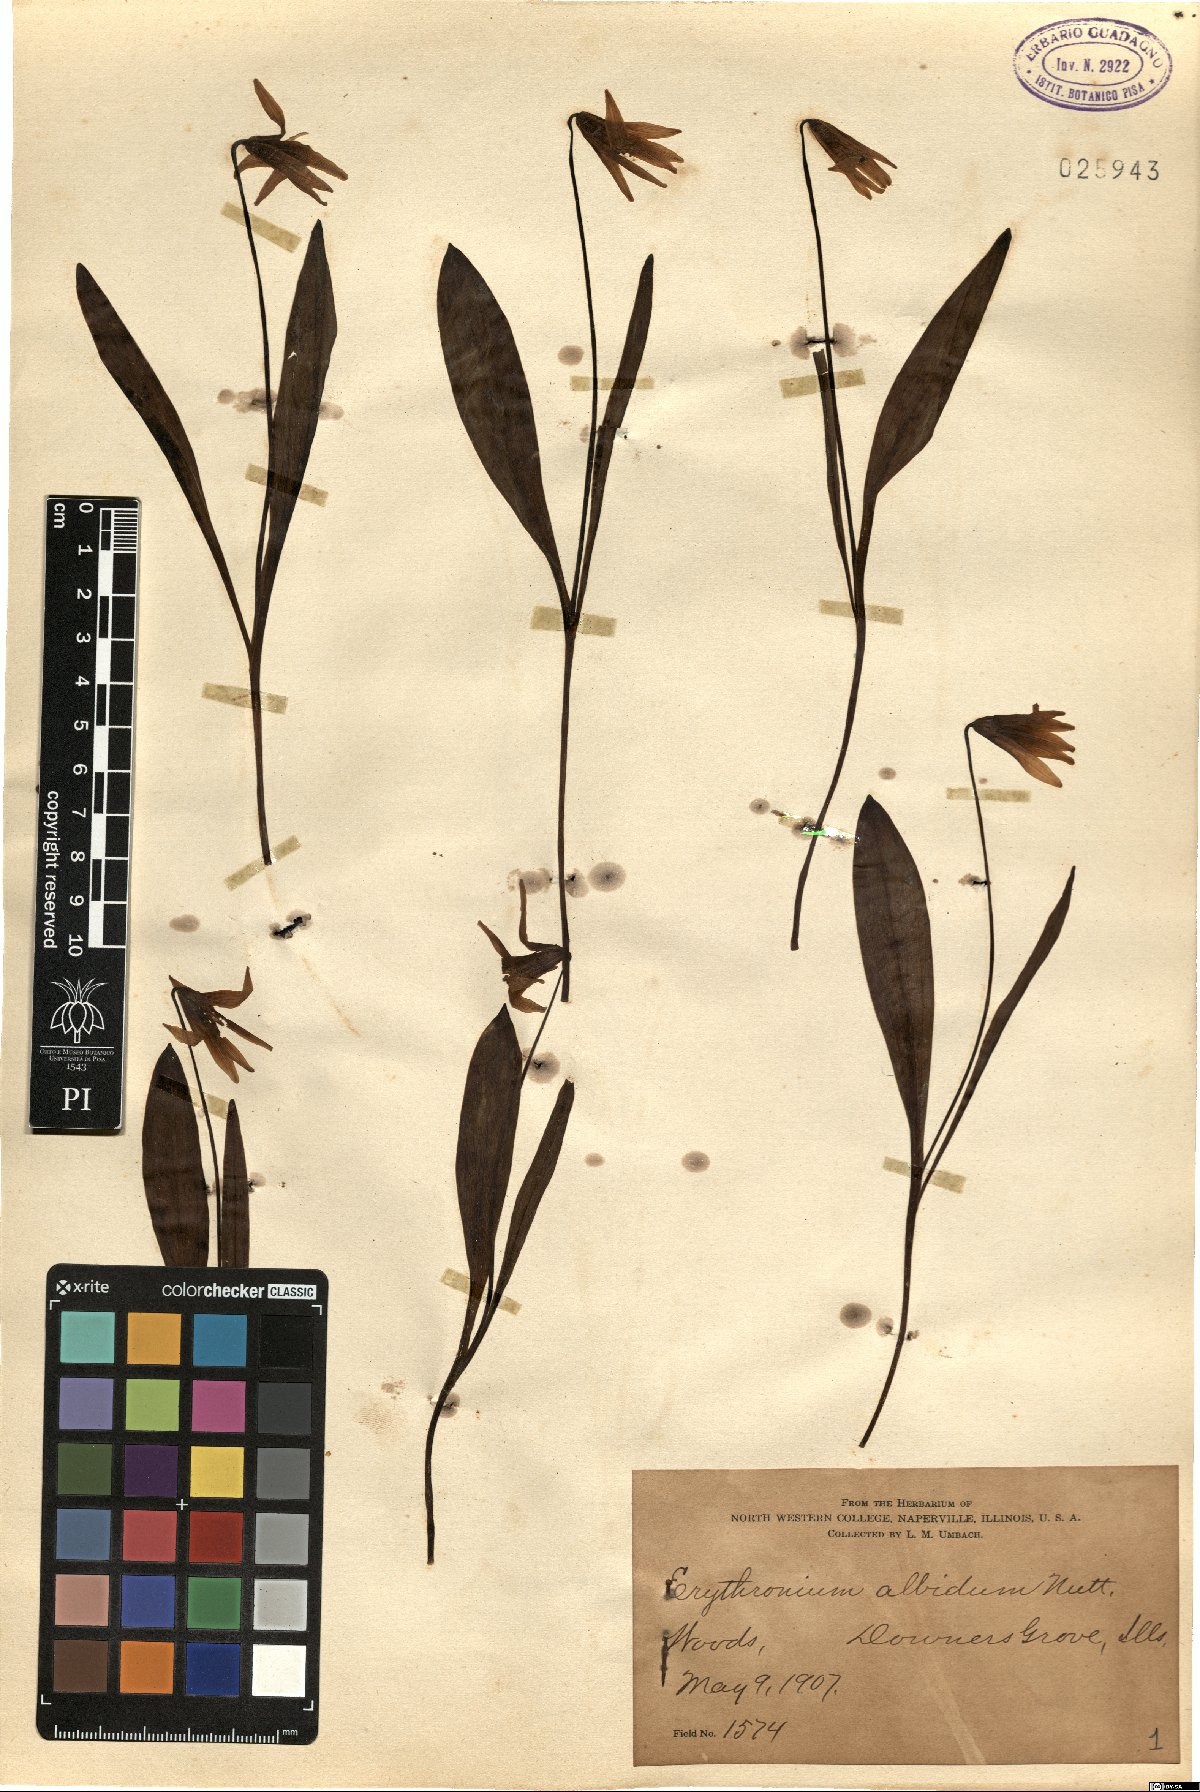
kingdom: Plantae
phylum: Tracheophyta
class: Liliopsida
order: Liliales
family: Liliaceae
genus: Erythronium
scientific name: Erythronium albidum
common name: White trout-lily
